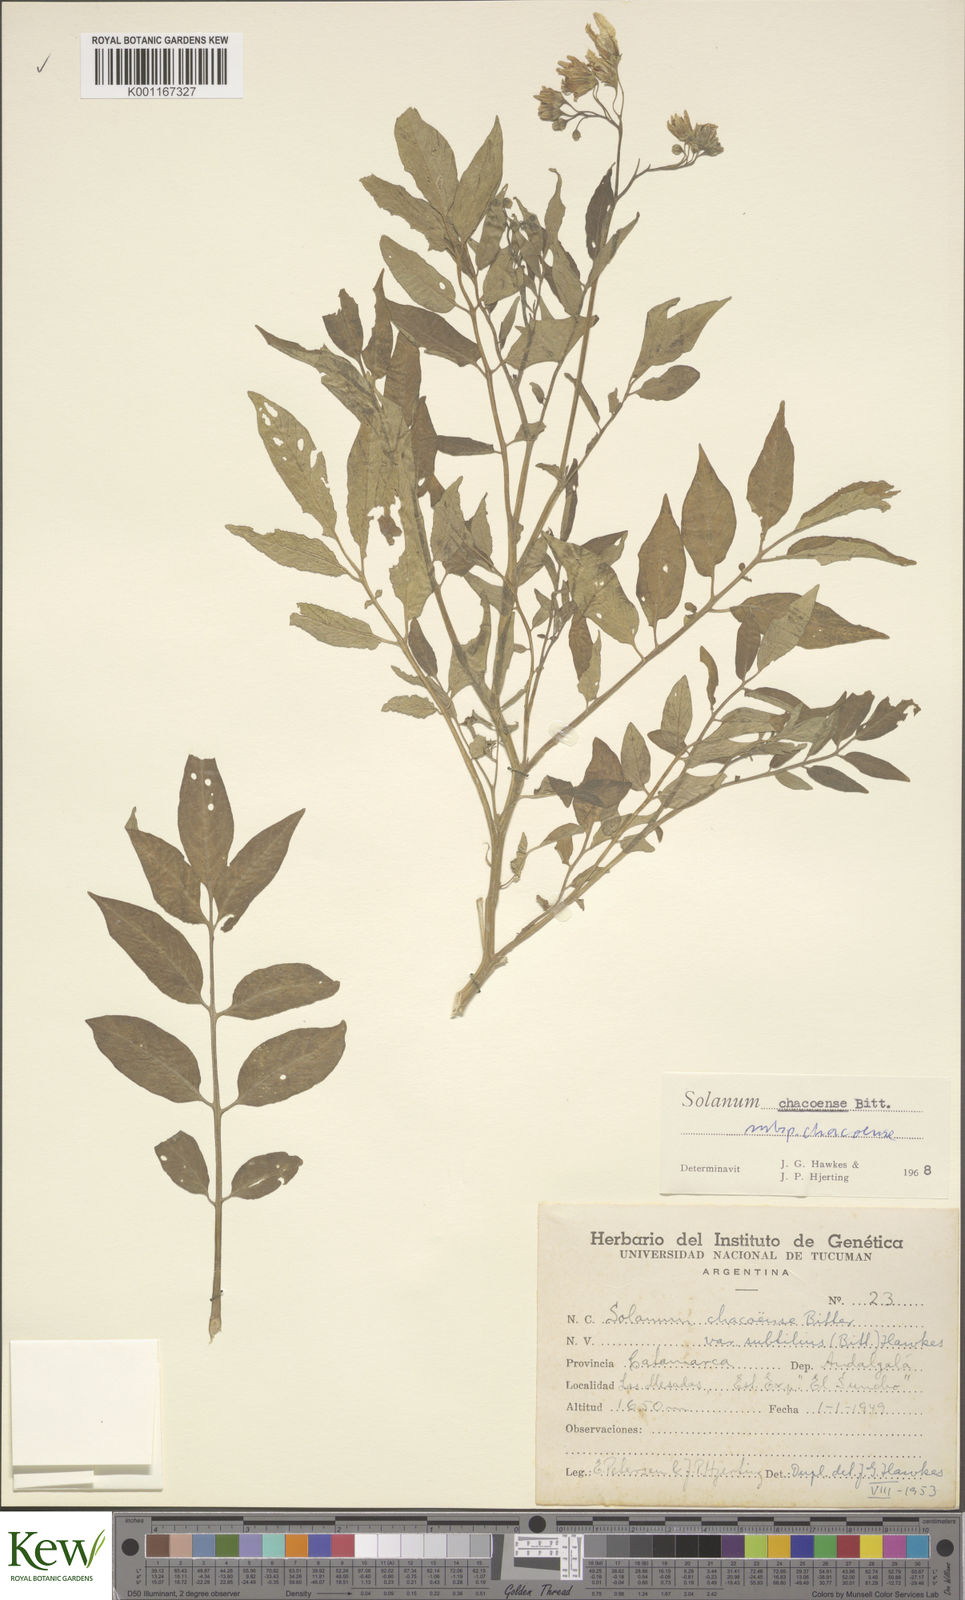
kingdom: Plantae
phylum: Tracheophyta
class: Magnoliopsida
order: Solanales
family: Solanaceae
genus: Solanum
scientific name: Solanum chacoense
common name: Chaco potato
